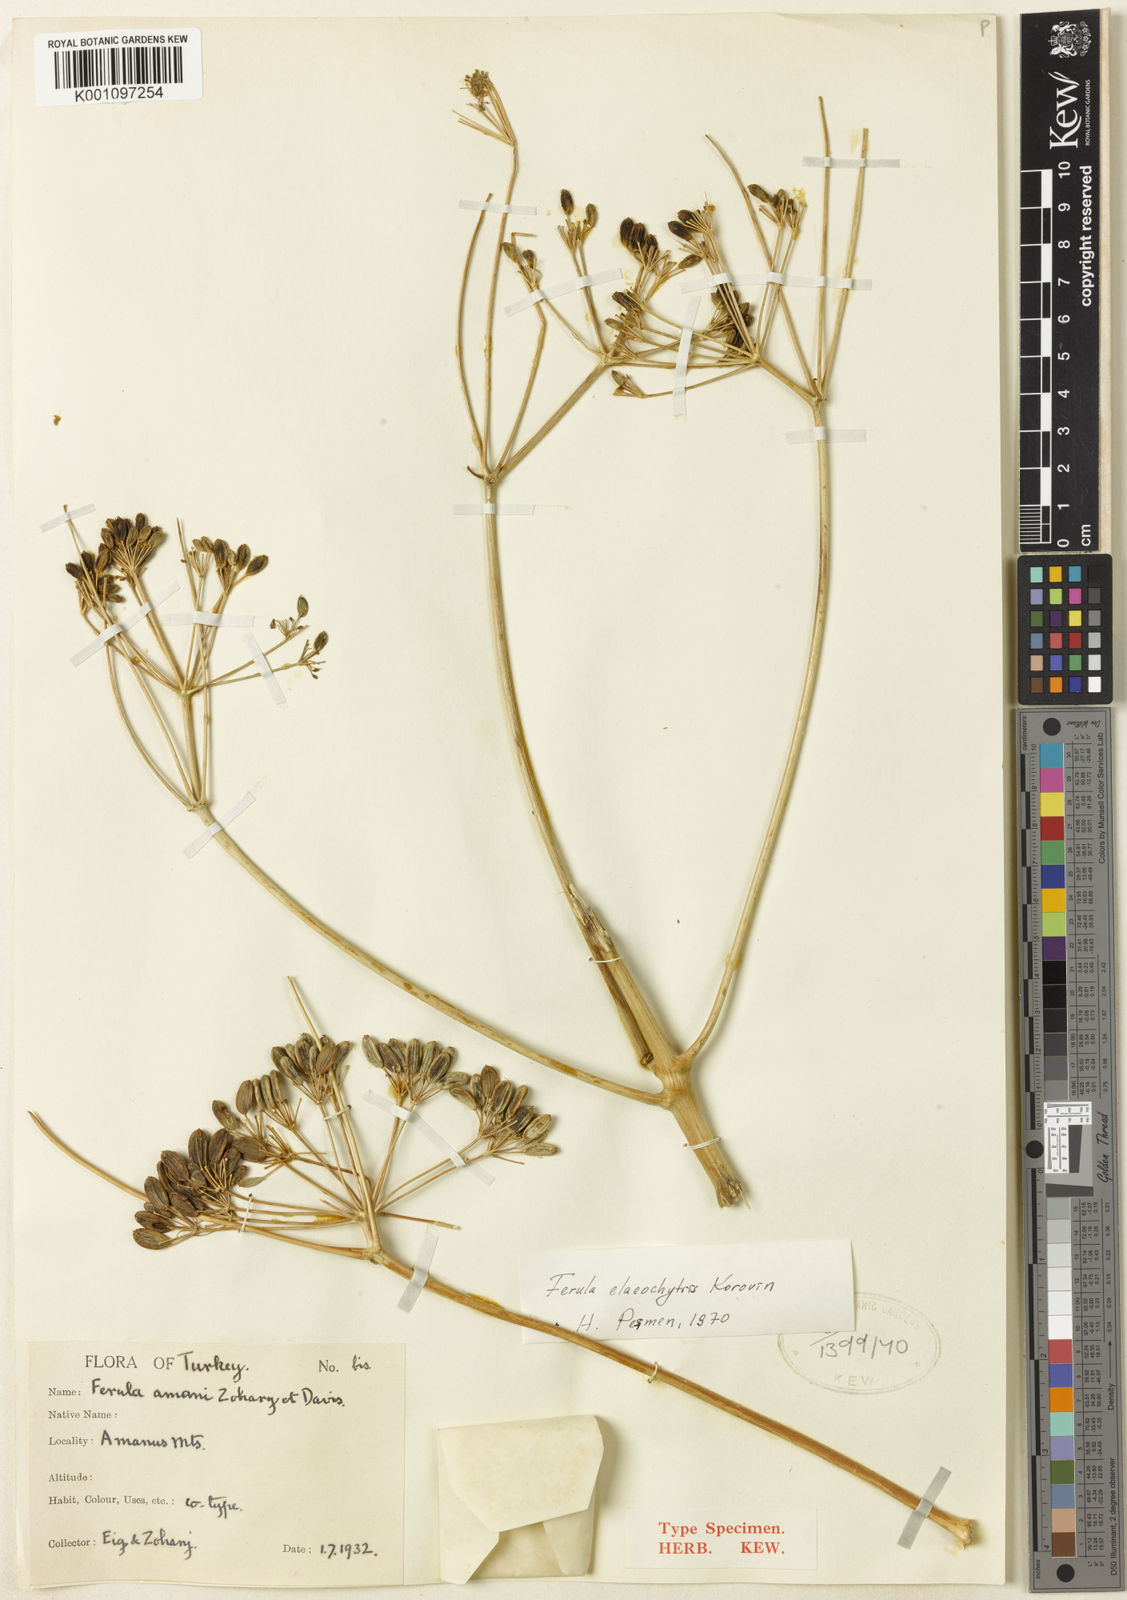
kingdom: Plantae
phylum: Tracheophyta
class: Magnoliopsida
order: Apiales
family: Apiaceae
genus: Ferula
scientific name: Ferula elaeochytris
